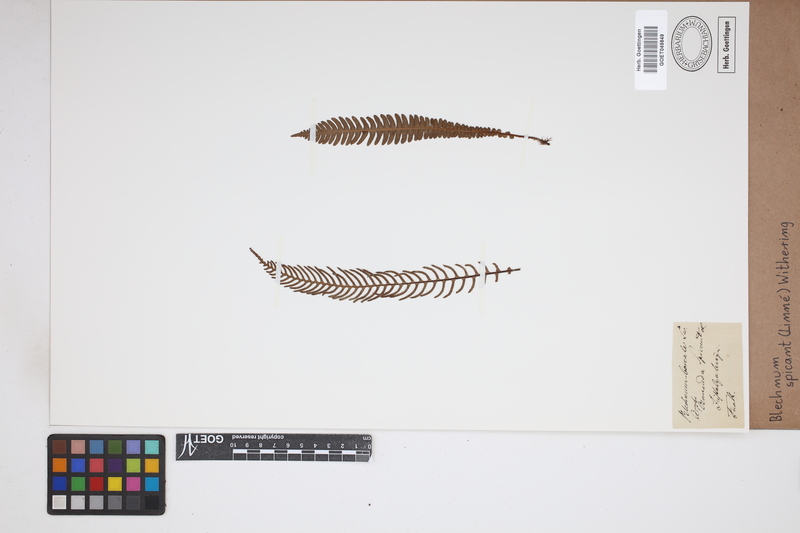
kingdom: Plantae
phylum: Tracheophyta
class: Polypodiopsida
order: Polypodiales
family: Blechnaceae
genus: Struthiopteris
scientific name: Struthiopteris spicant
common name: Deer fern
